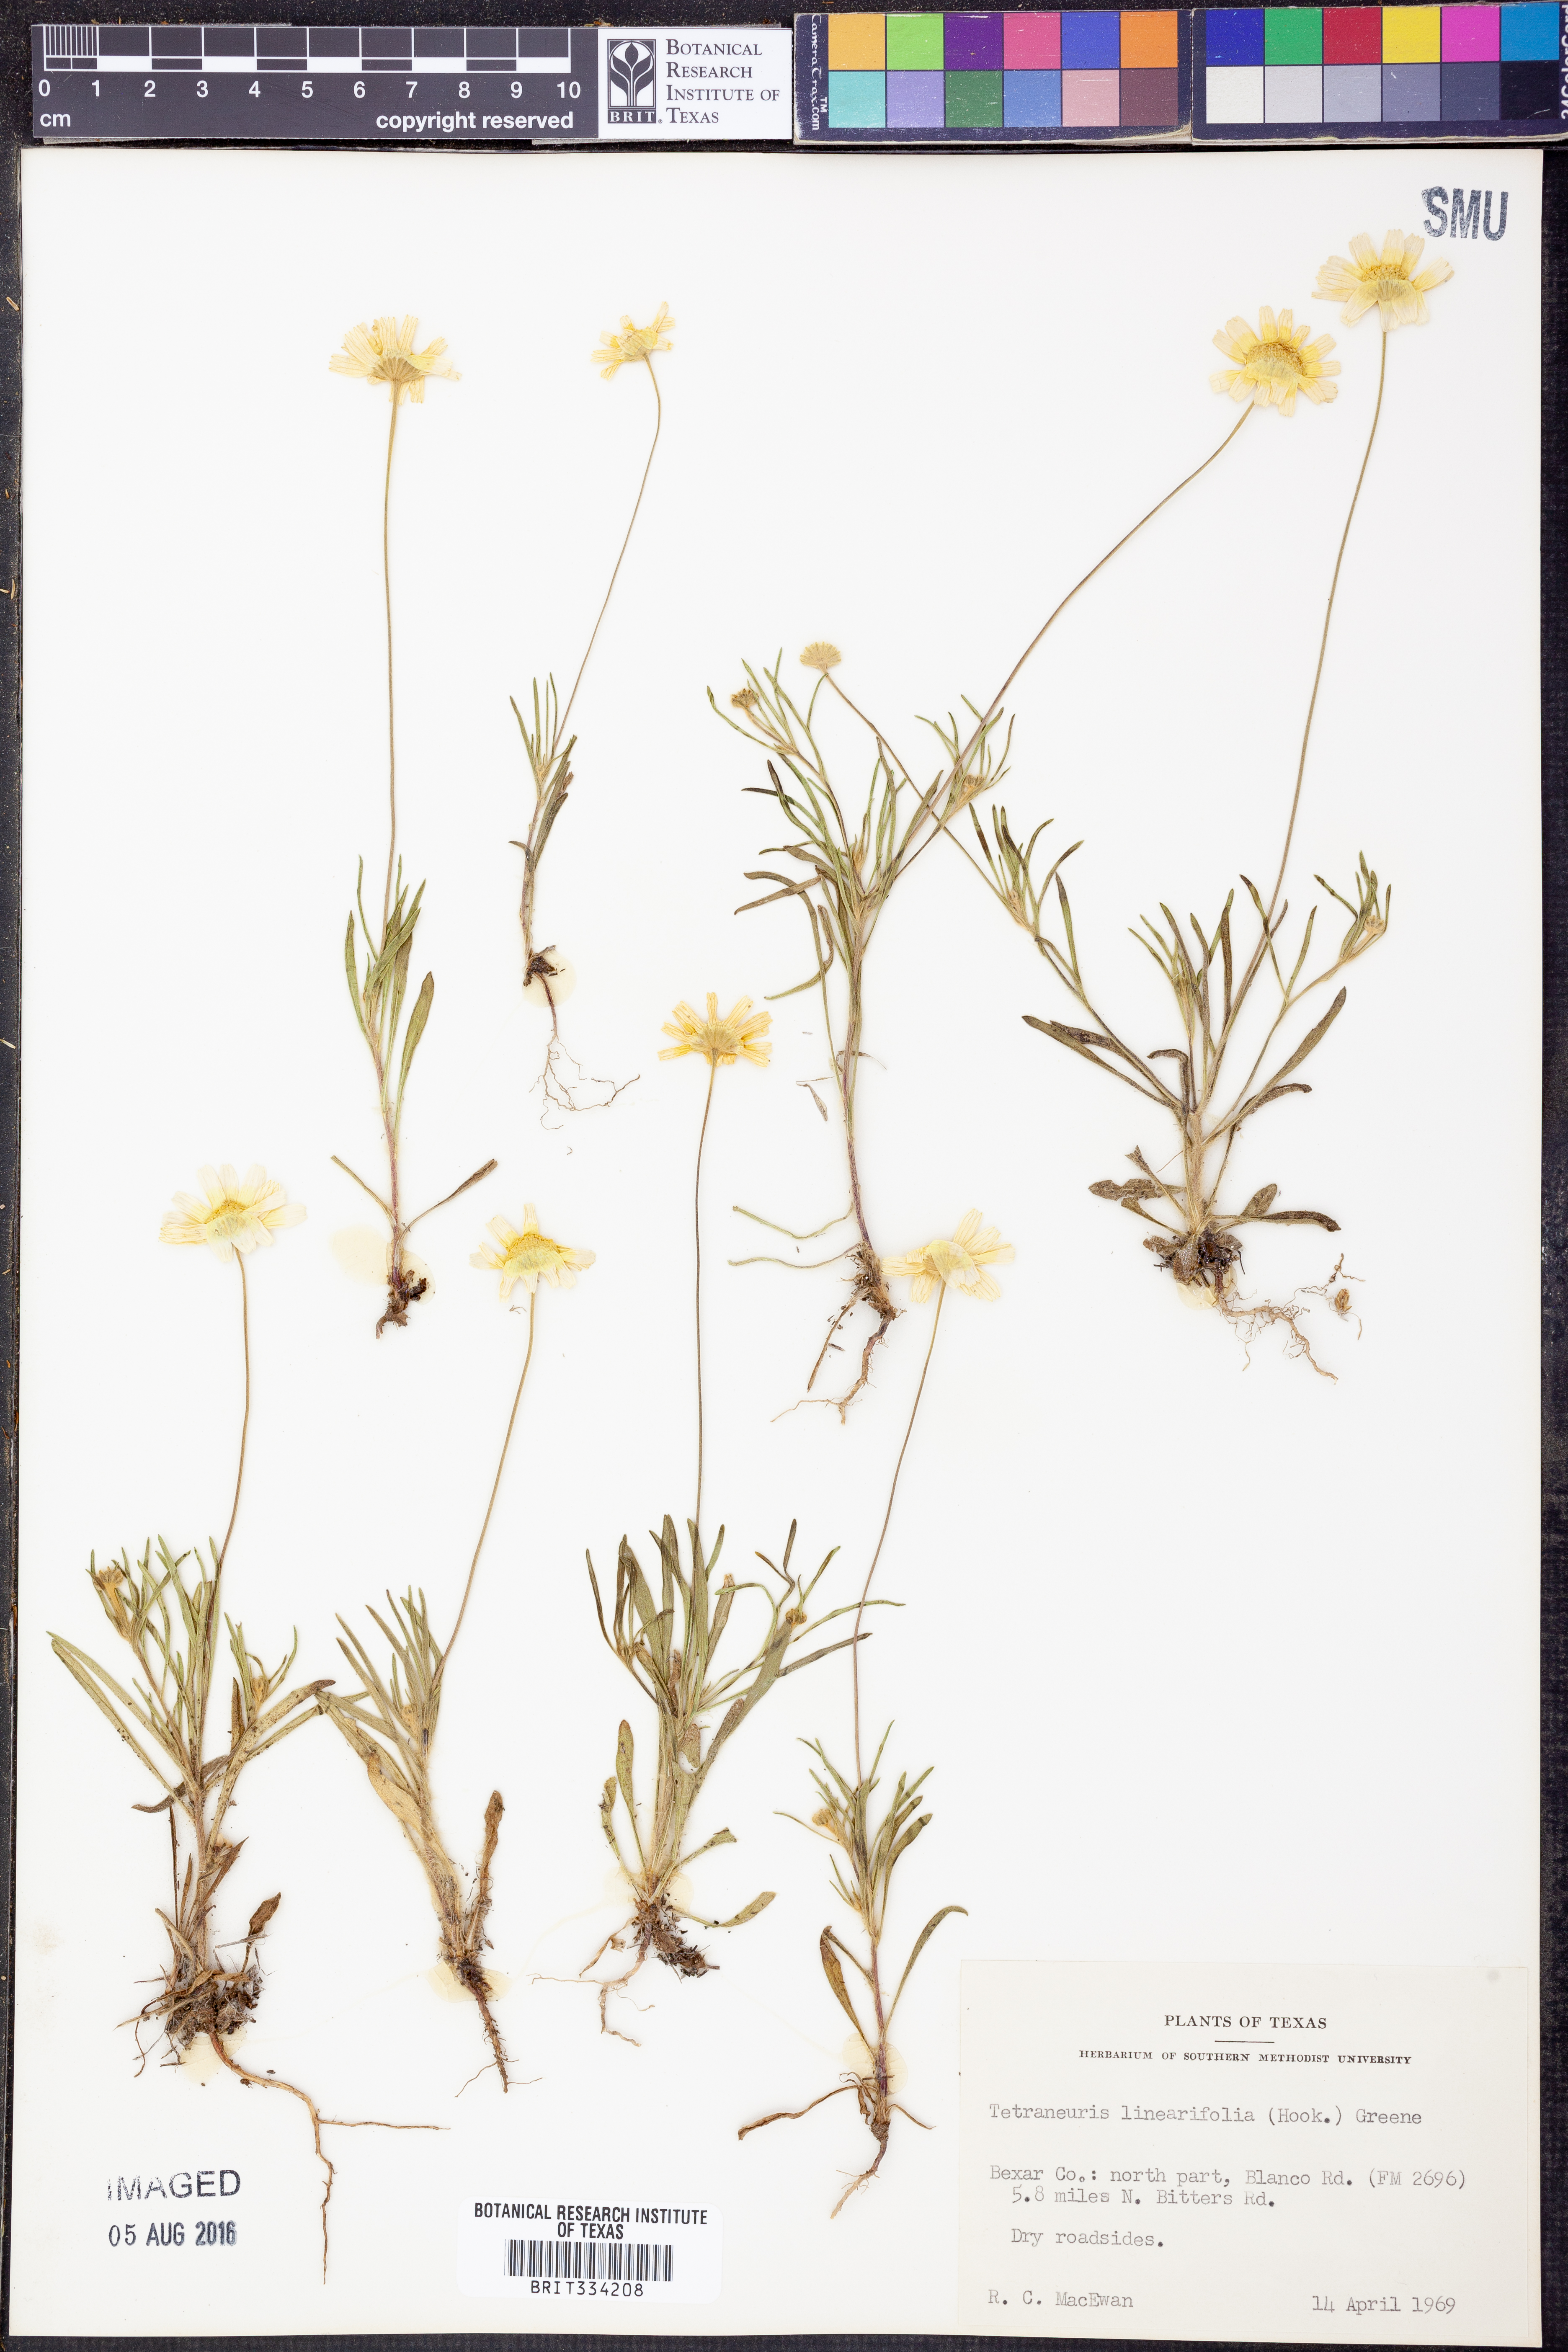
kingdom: Plantae
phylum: Tracheophyta
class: Magnoliopsida
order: Asterales
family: Asteraceae
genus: Tetraneuris
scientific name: Tetraneuris linearifolia
